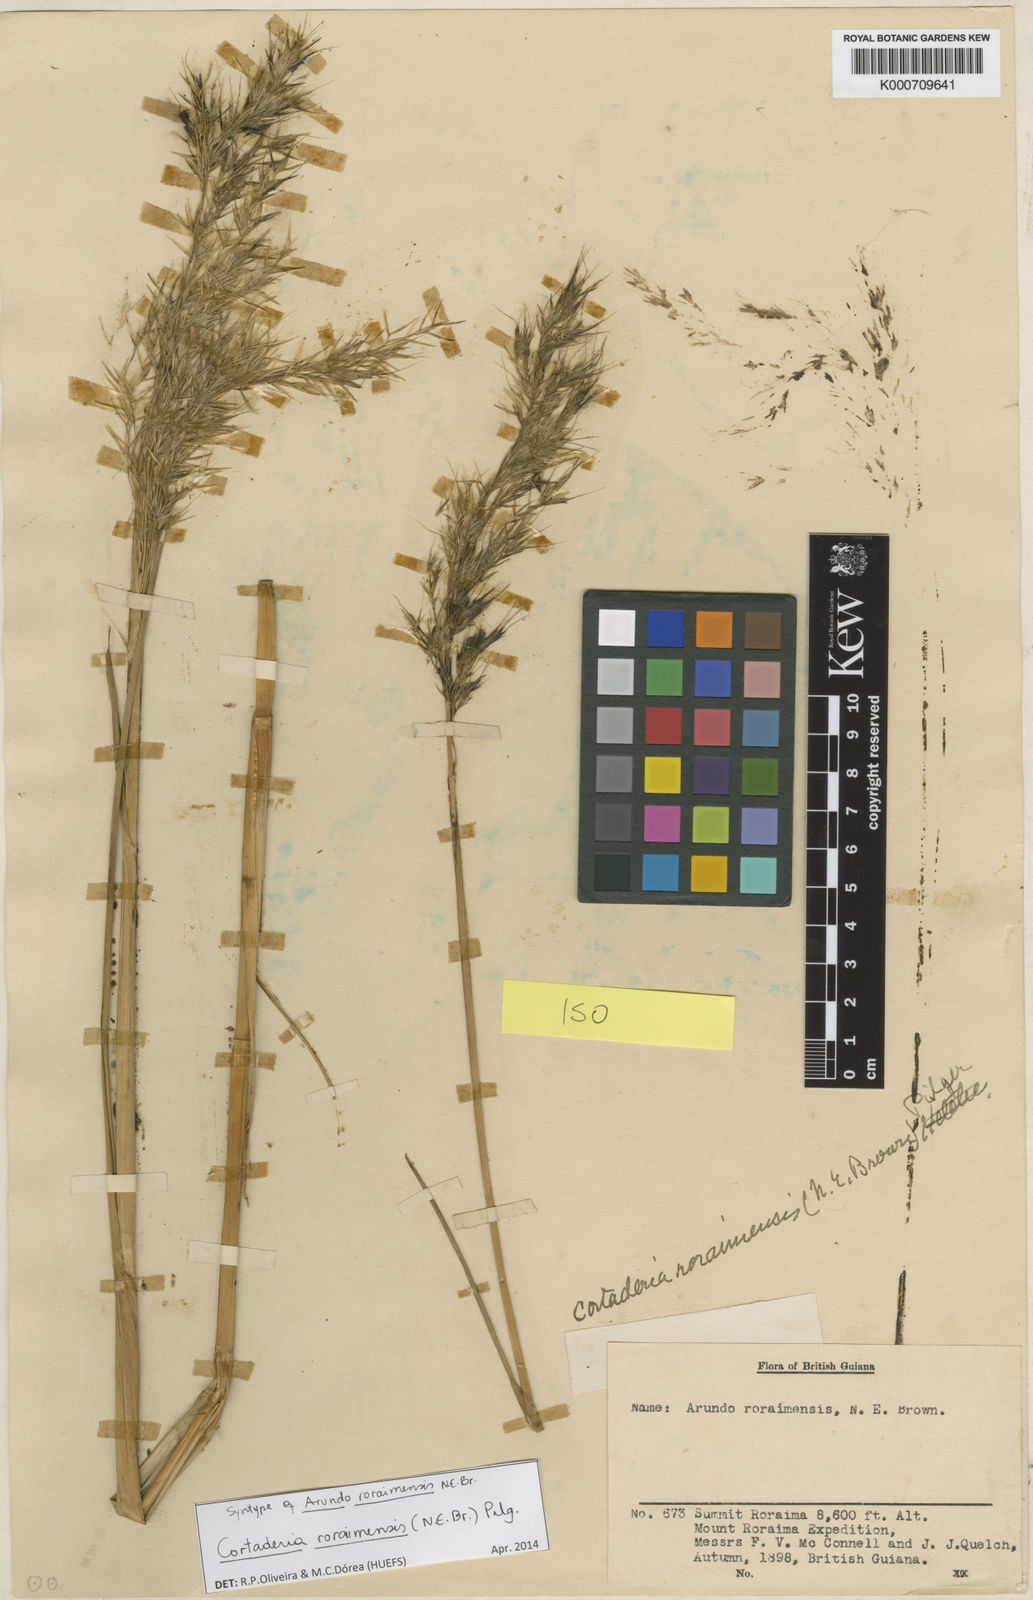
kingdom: Plantae
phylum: Tracheophyta
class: Liliopsida
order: Poales
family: Poaceae
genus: Cortaderia
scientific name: Cortaderia roraimensis
